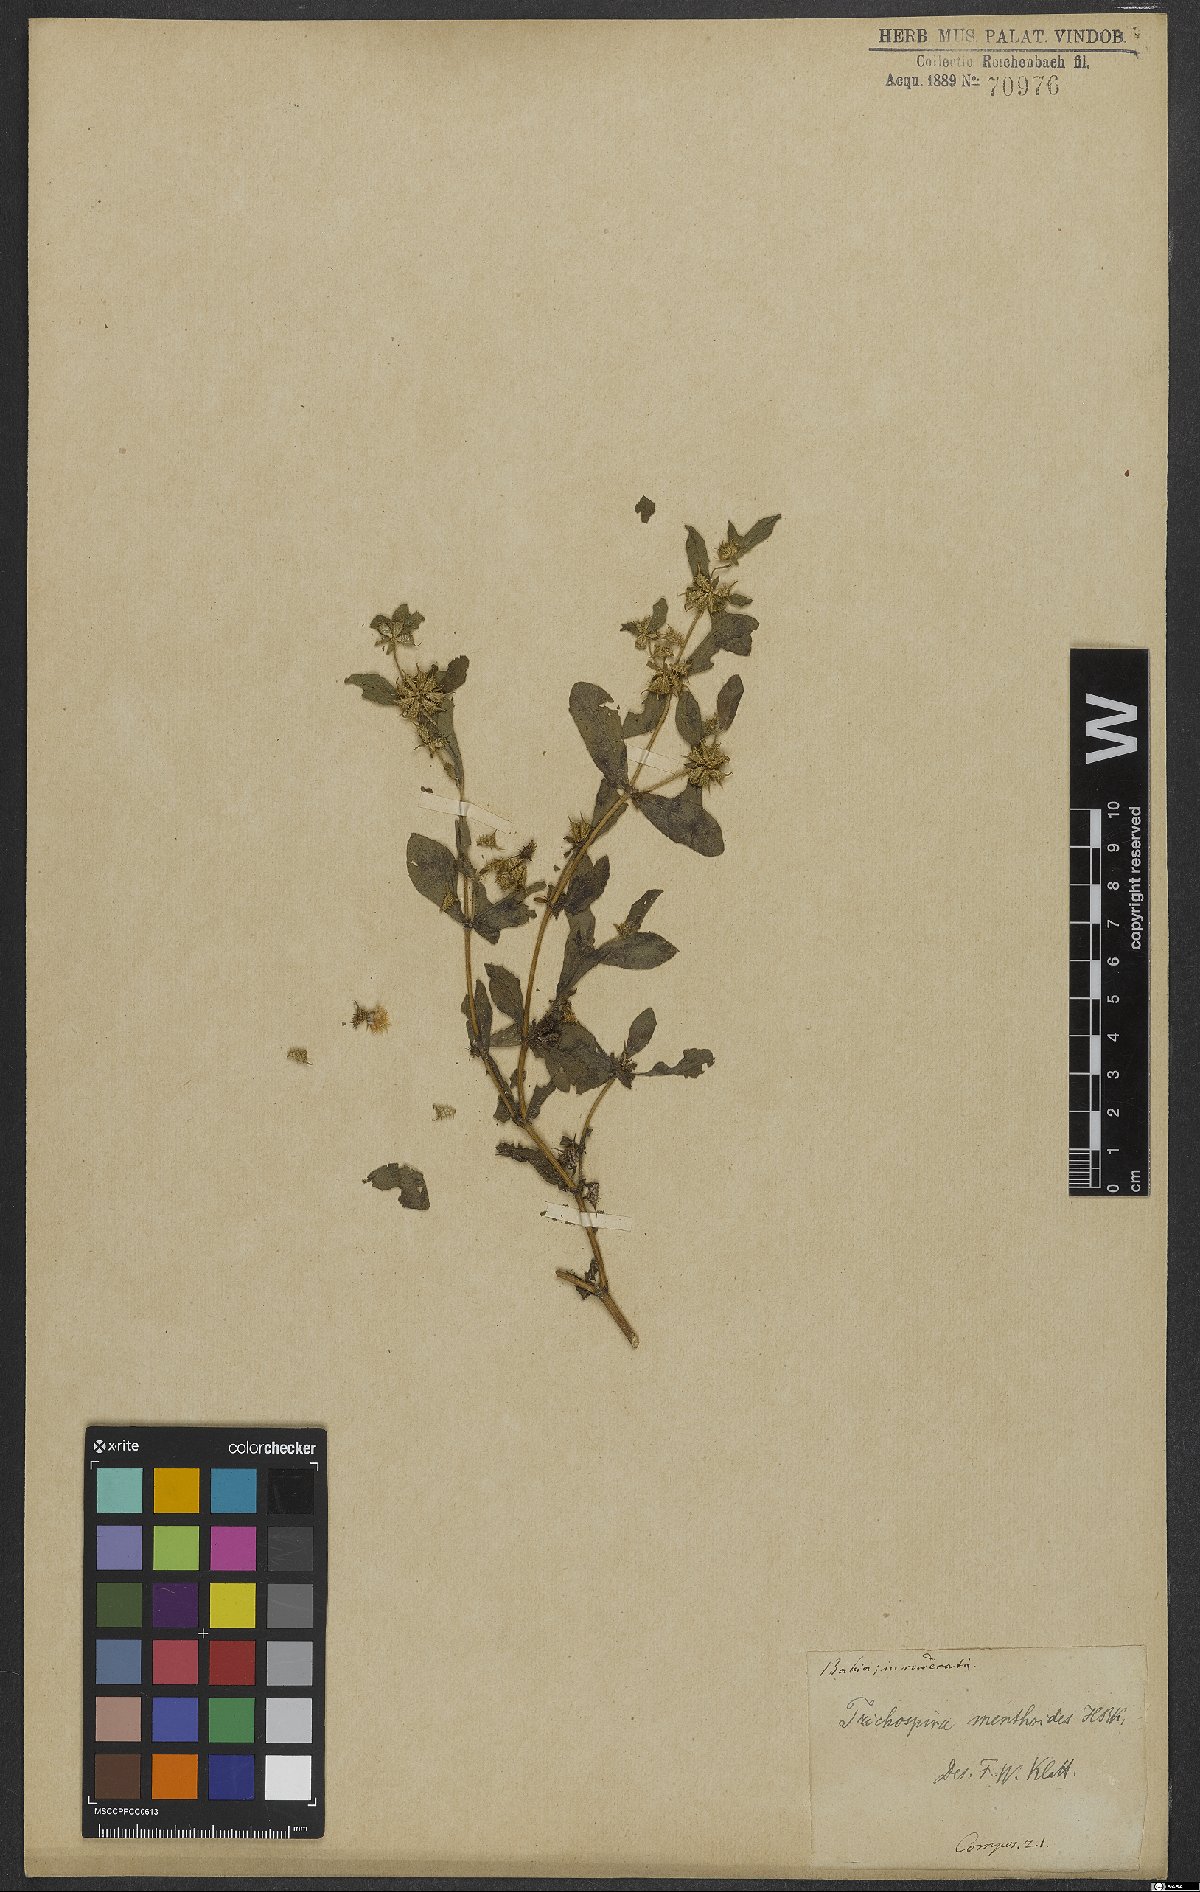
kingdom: Chromista
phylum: Ciliophora
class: Kinetofragminophora
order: Trichostomatida
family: Trichospiridae
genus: Trichospira
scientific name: Trichospira verticillata
